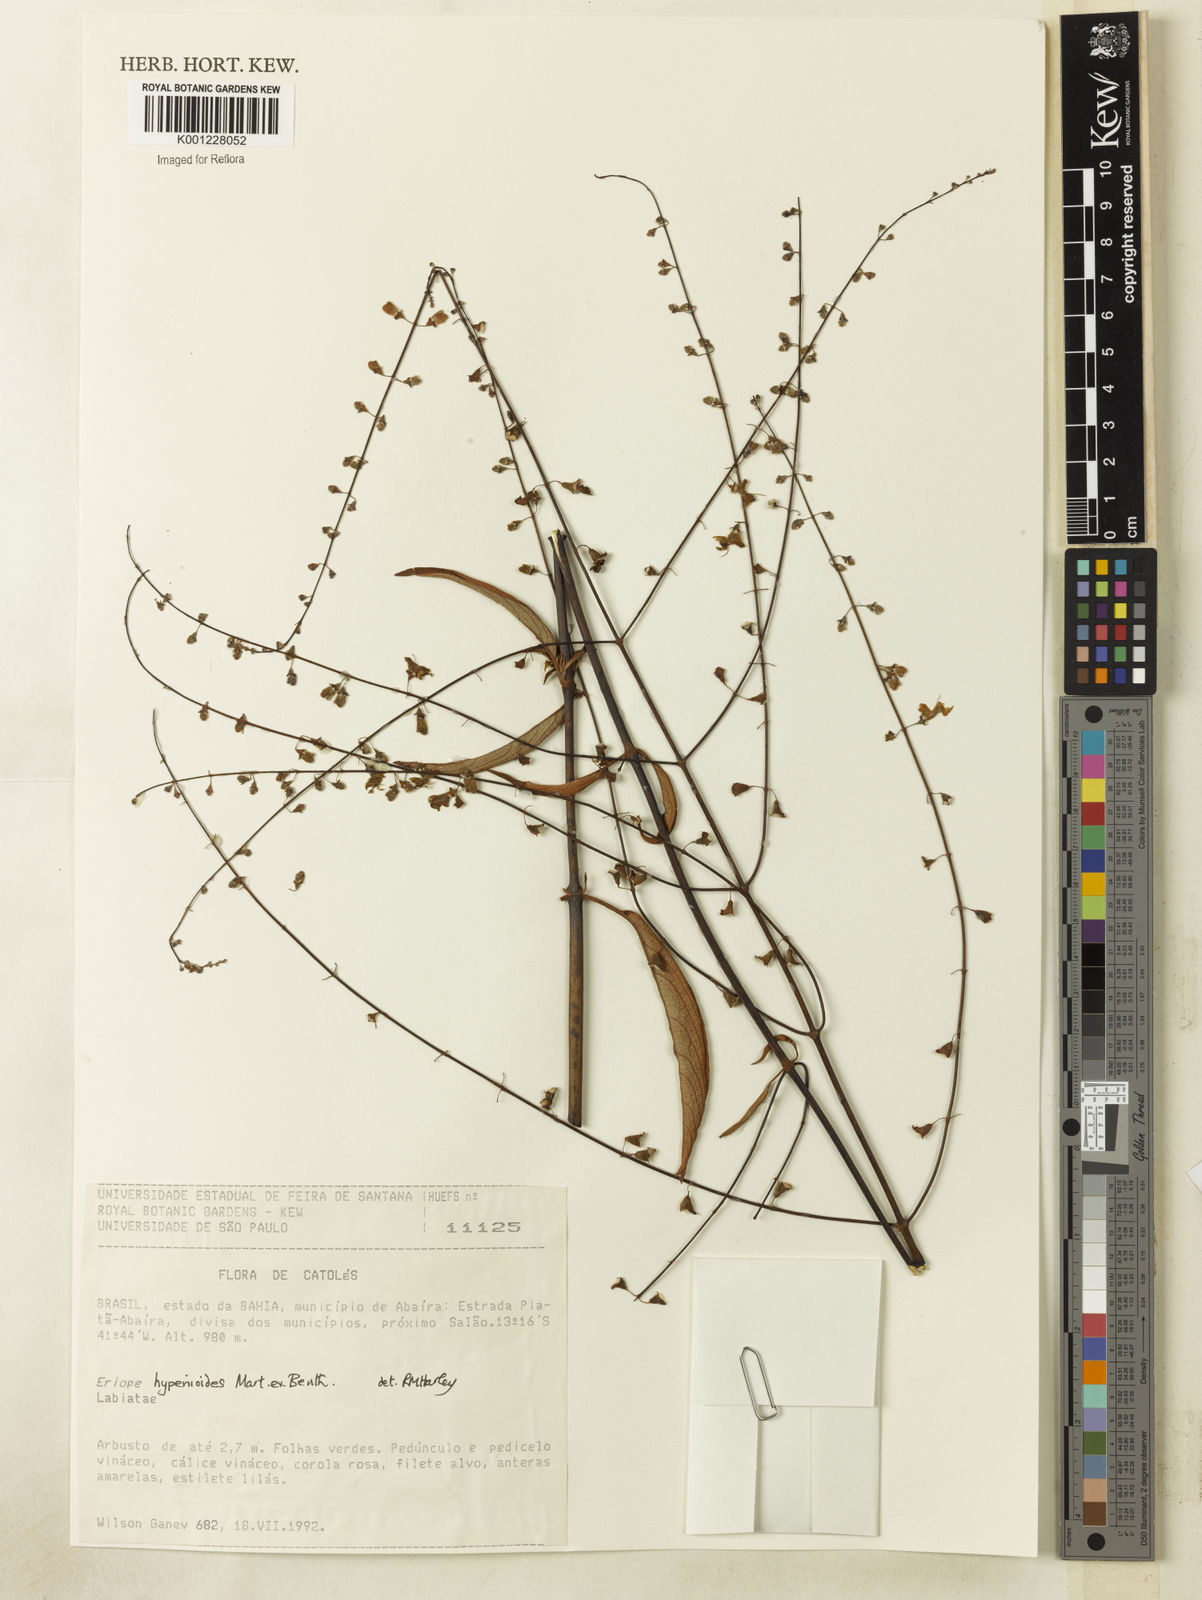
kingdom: Plantae
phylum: Tracheophyta
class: Magnoliopsida
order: Lamiales
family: Lamiaceae
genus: Eriope
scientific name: Eriope hypenioides
